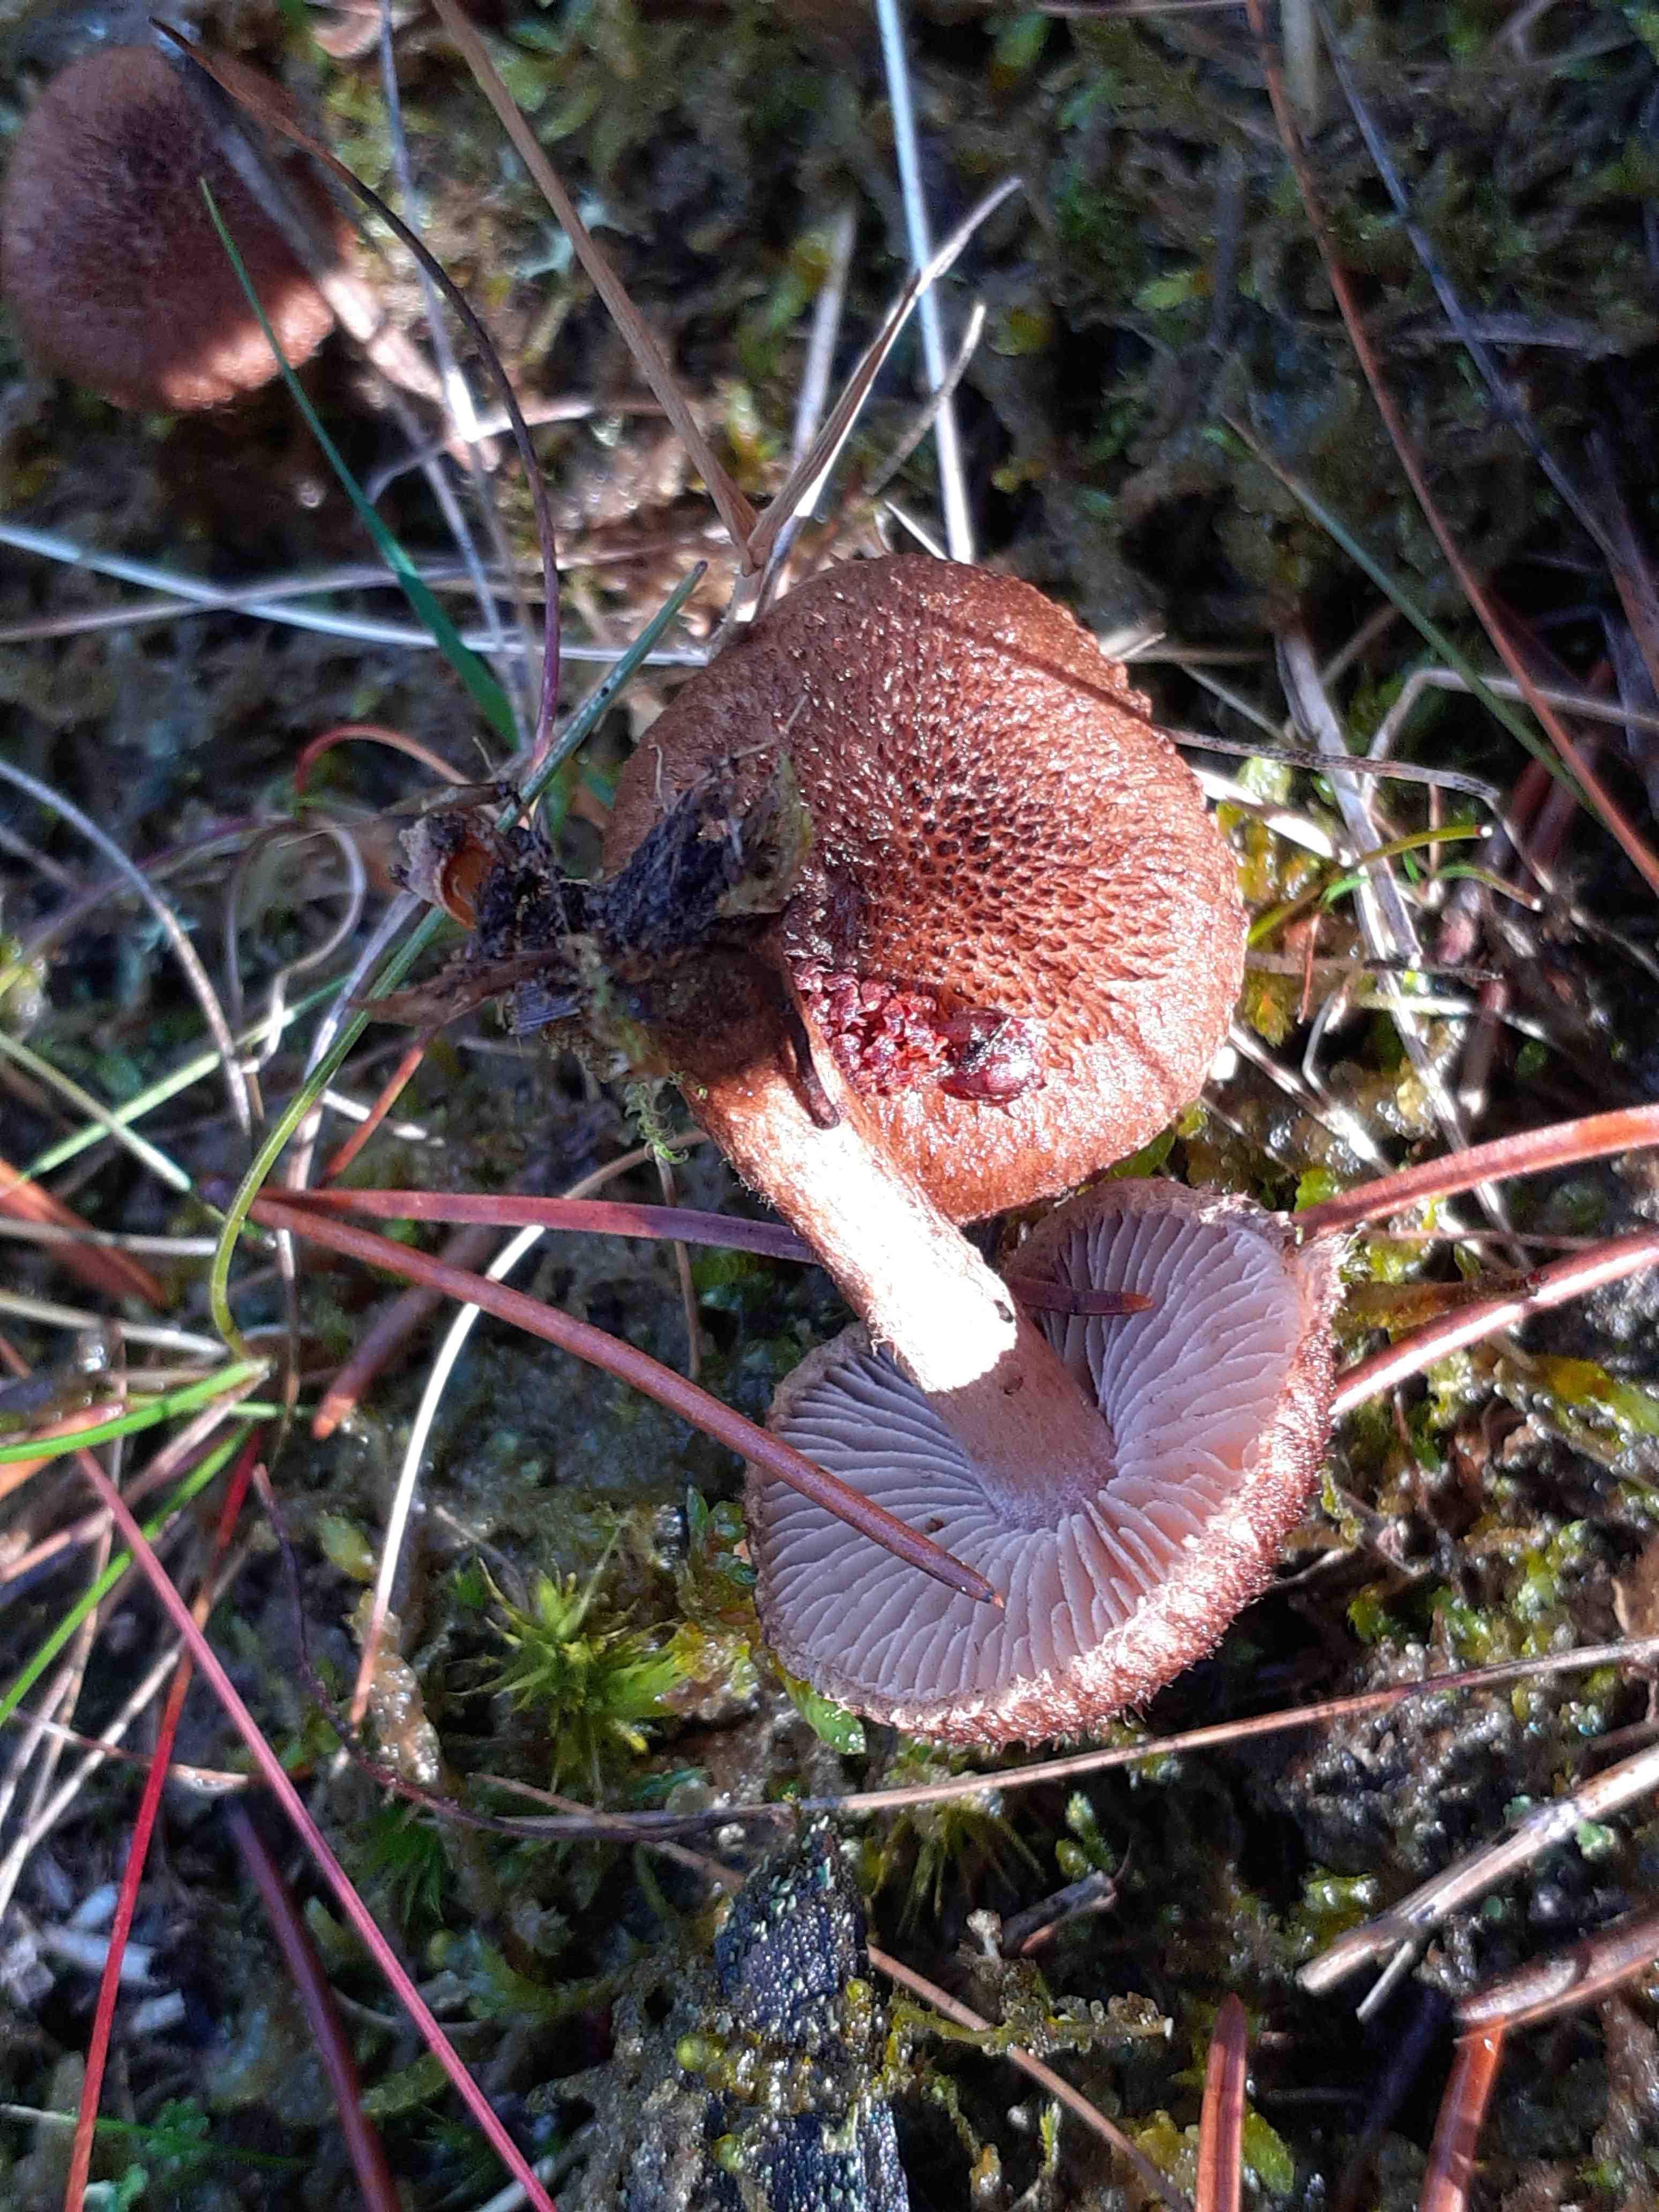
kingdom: Fungi
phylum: Basidiomycota
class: Agaricomycetes
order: Agaricales
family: Inocybaceae
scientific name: Inocybaceae
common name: trævlhatfamilien
